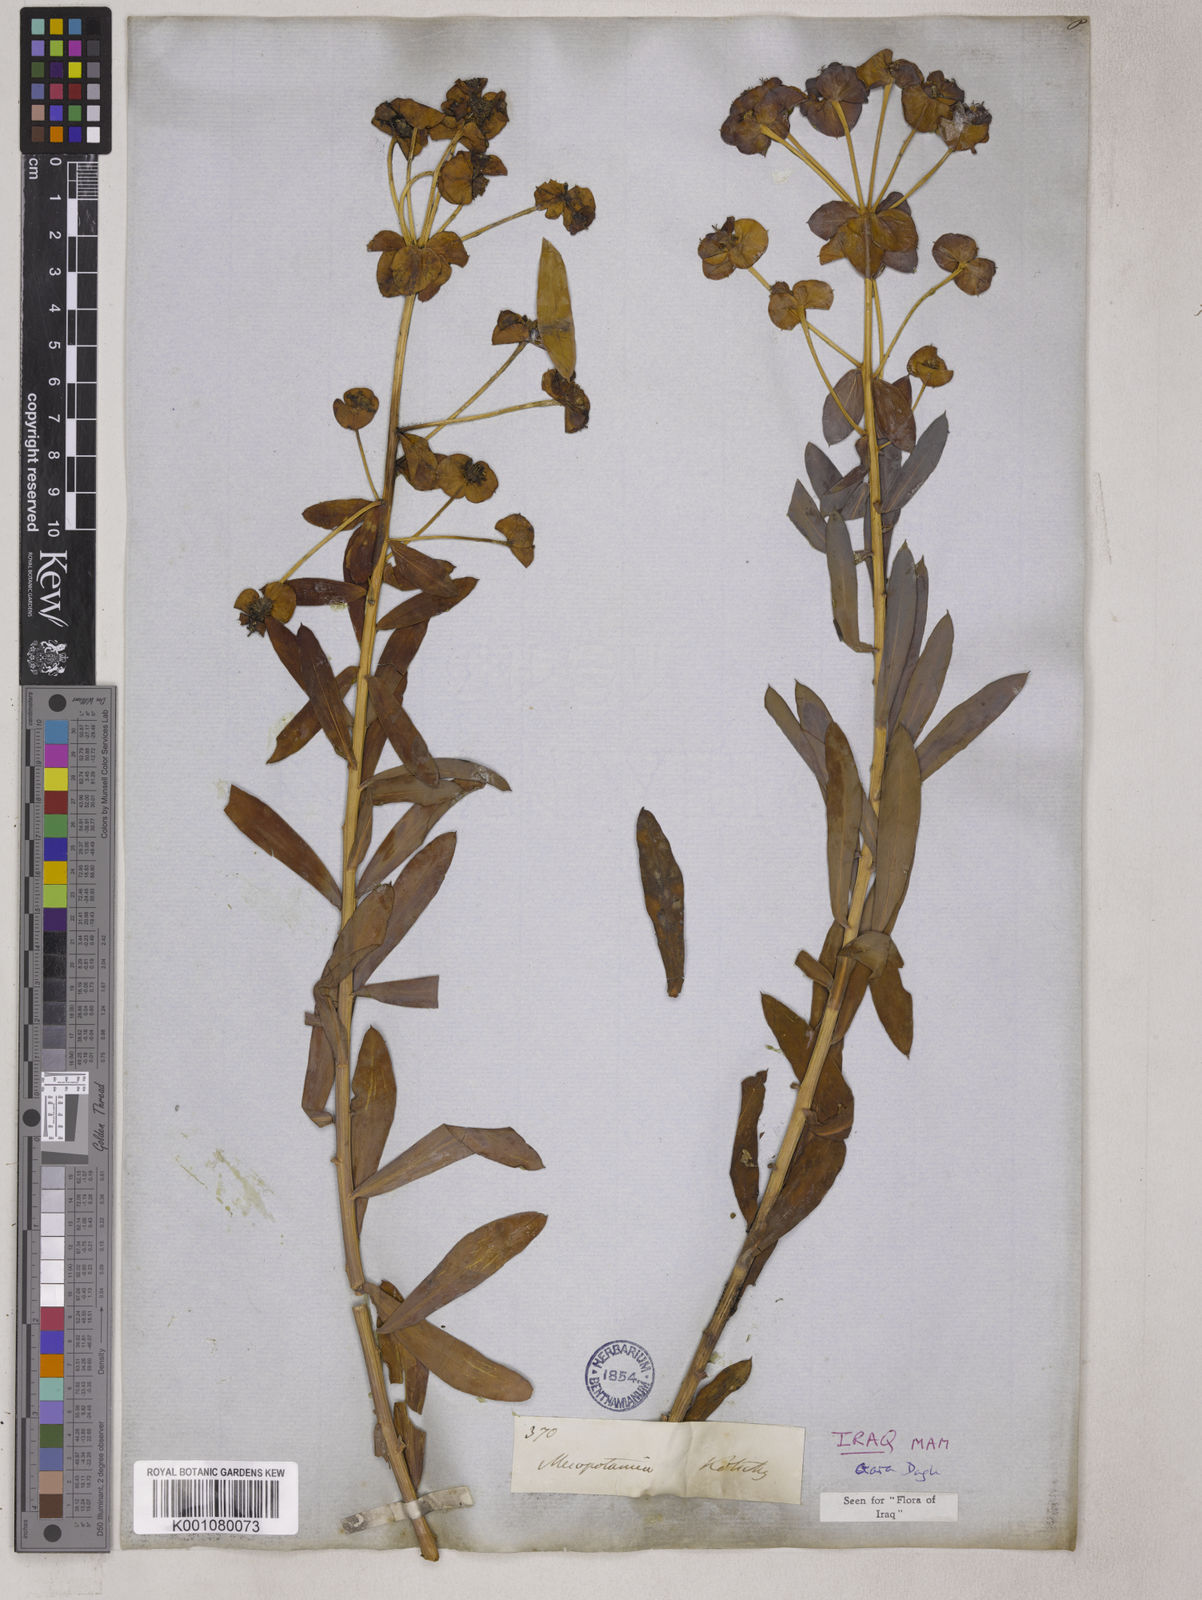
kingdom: Plantae
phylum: Tracheophyta
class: Magnoliopsida
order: Malpighiales
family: Euphorbiaceae
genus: Euphorbia
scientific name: Euphorbia macroclada
